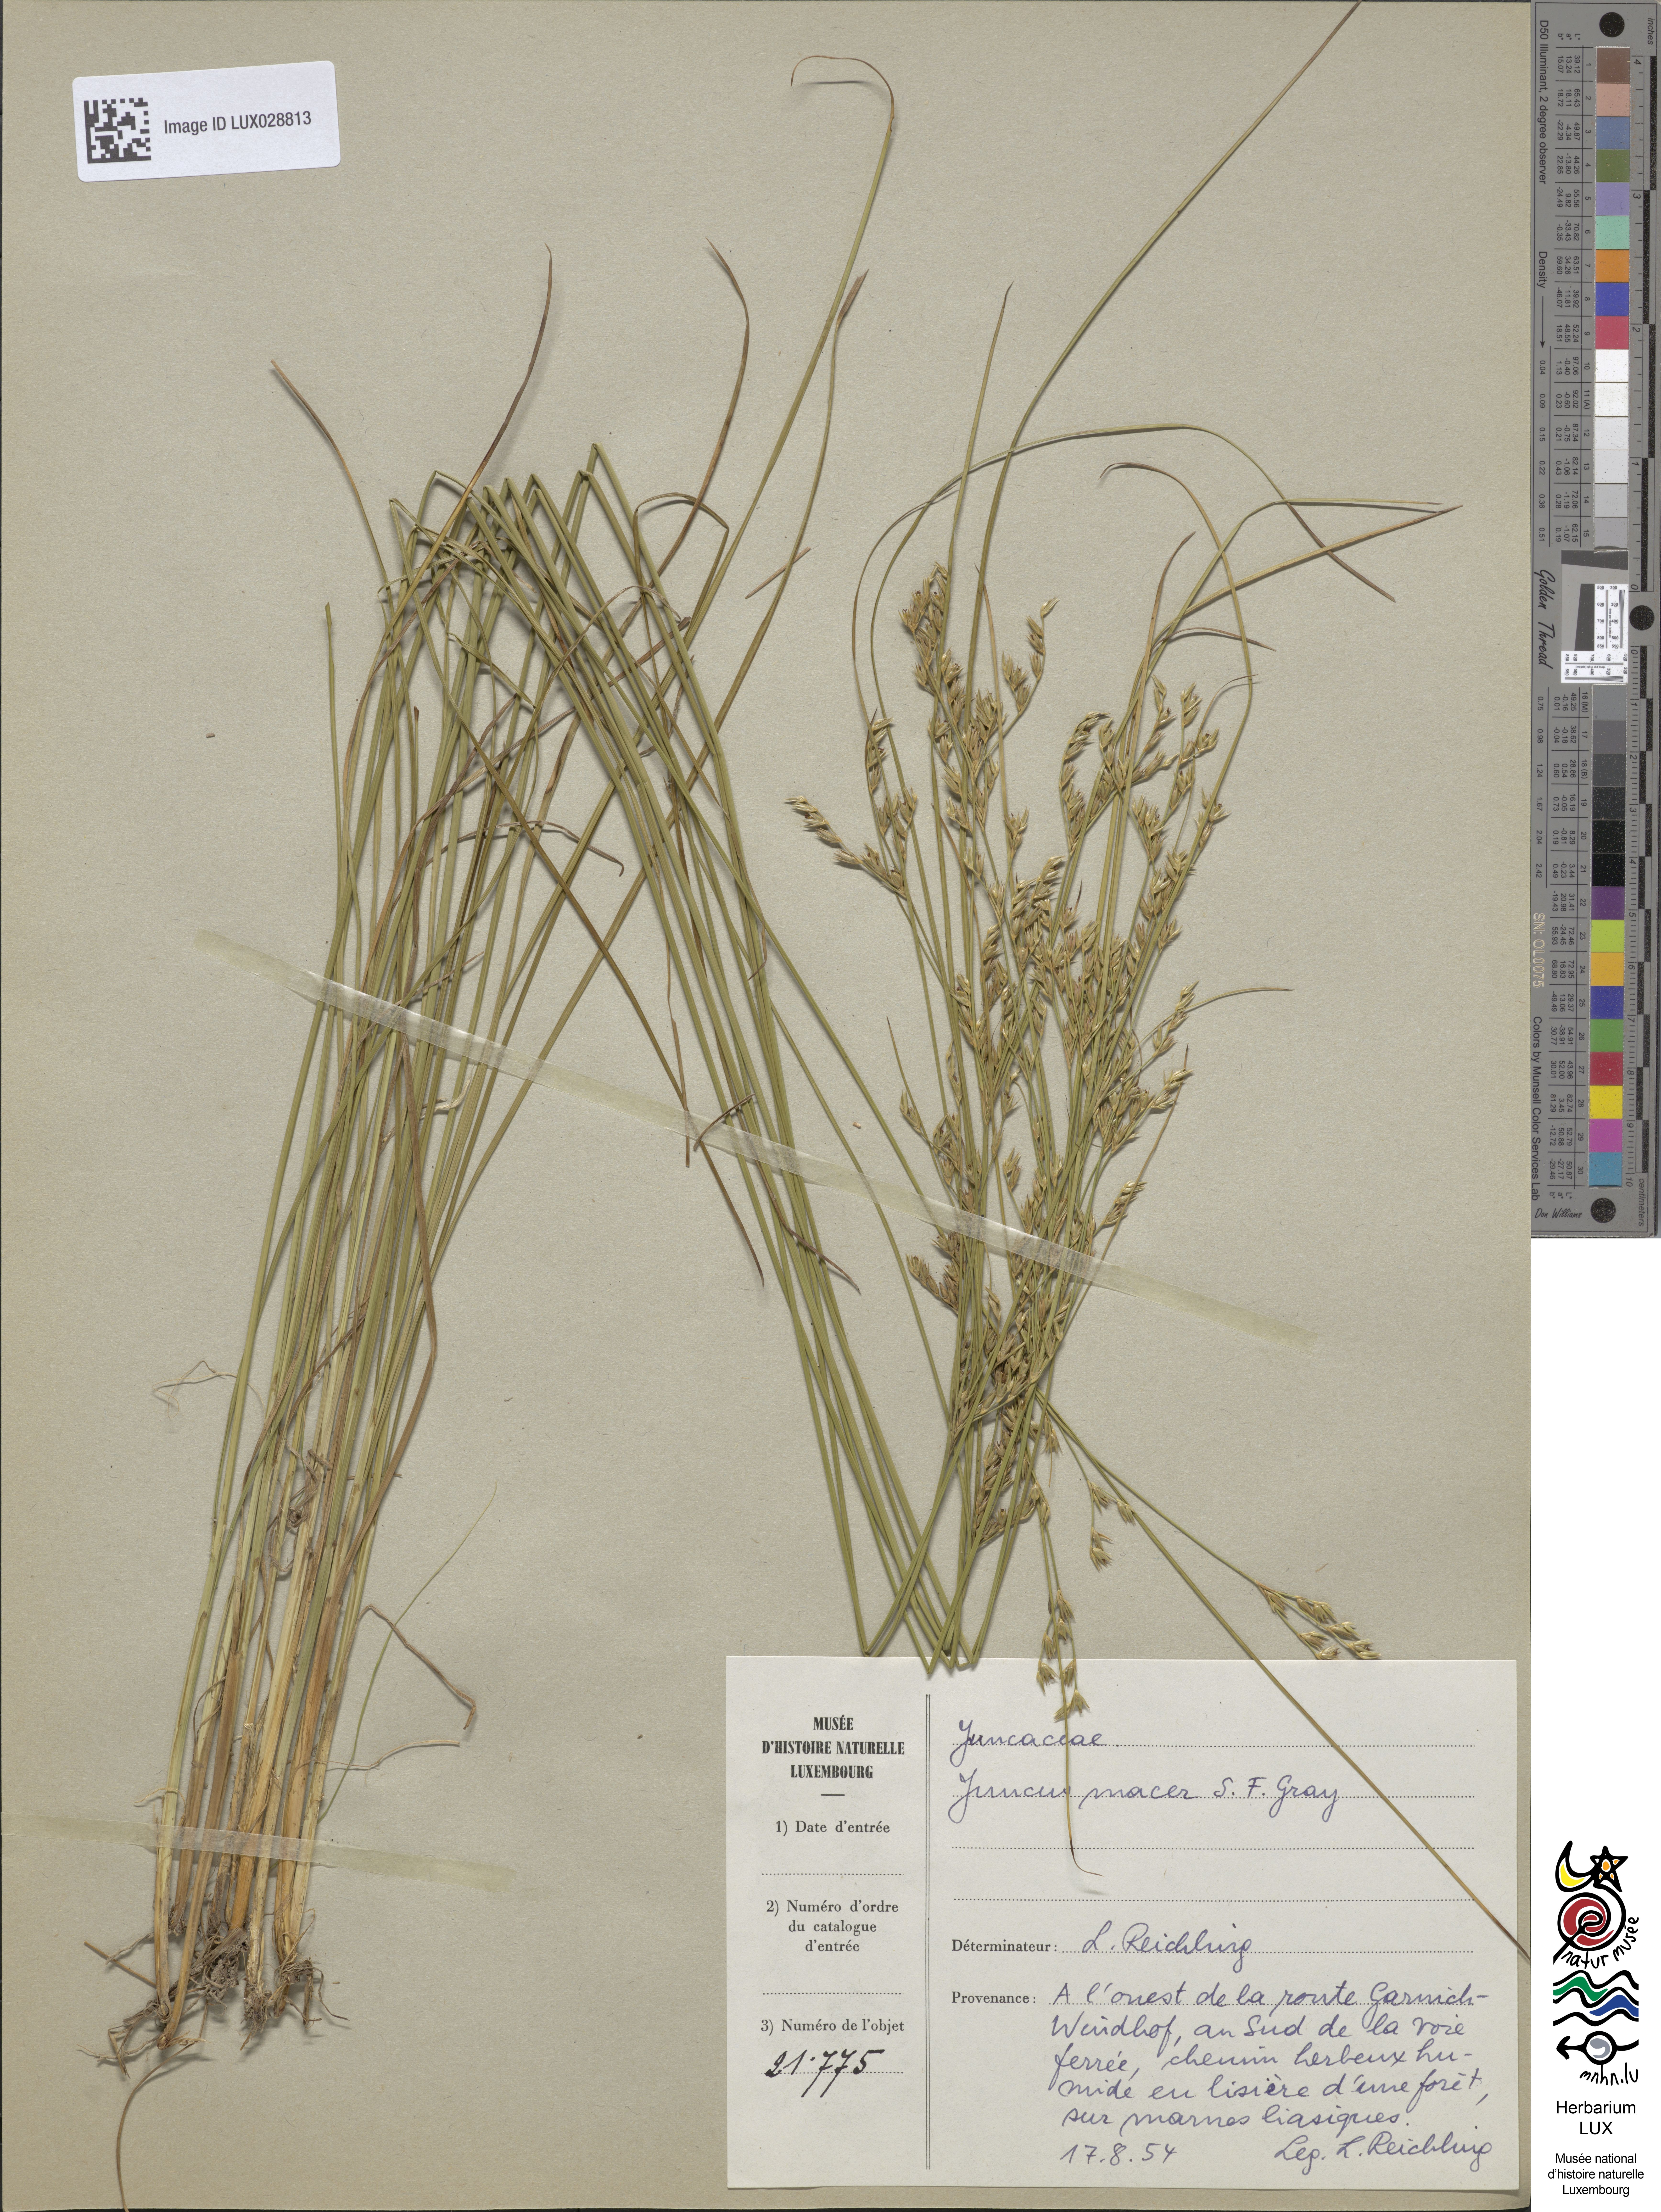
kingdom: Plantae
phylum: Tracheophyta
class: Liliopsida
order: Poales
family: Juncaceae
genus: Juncus
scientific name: Juncus tenuis
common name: Slender rush
